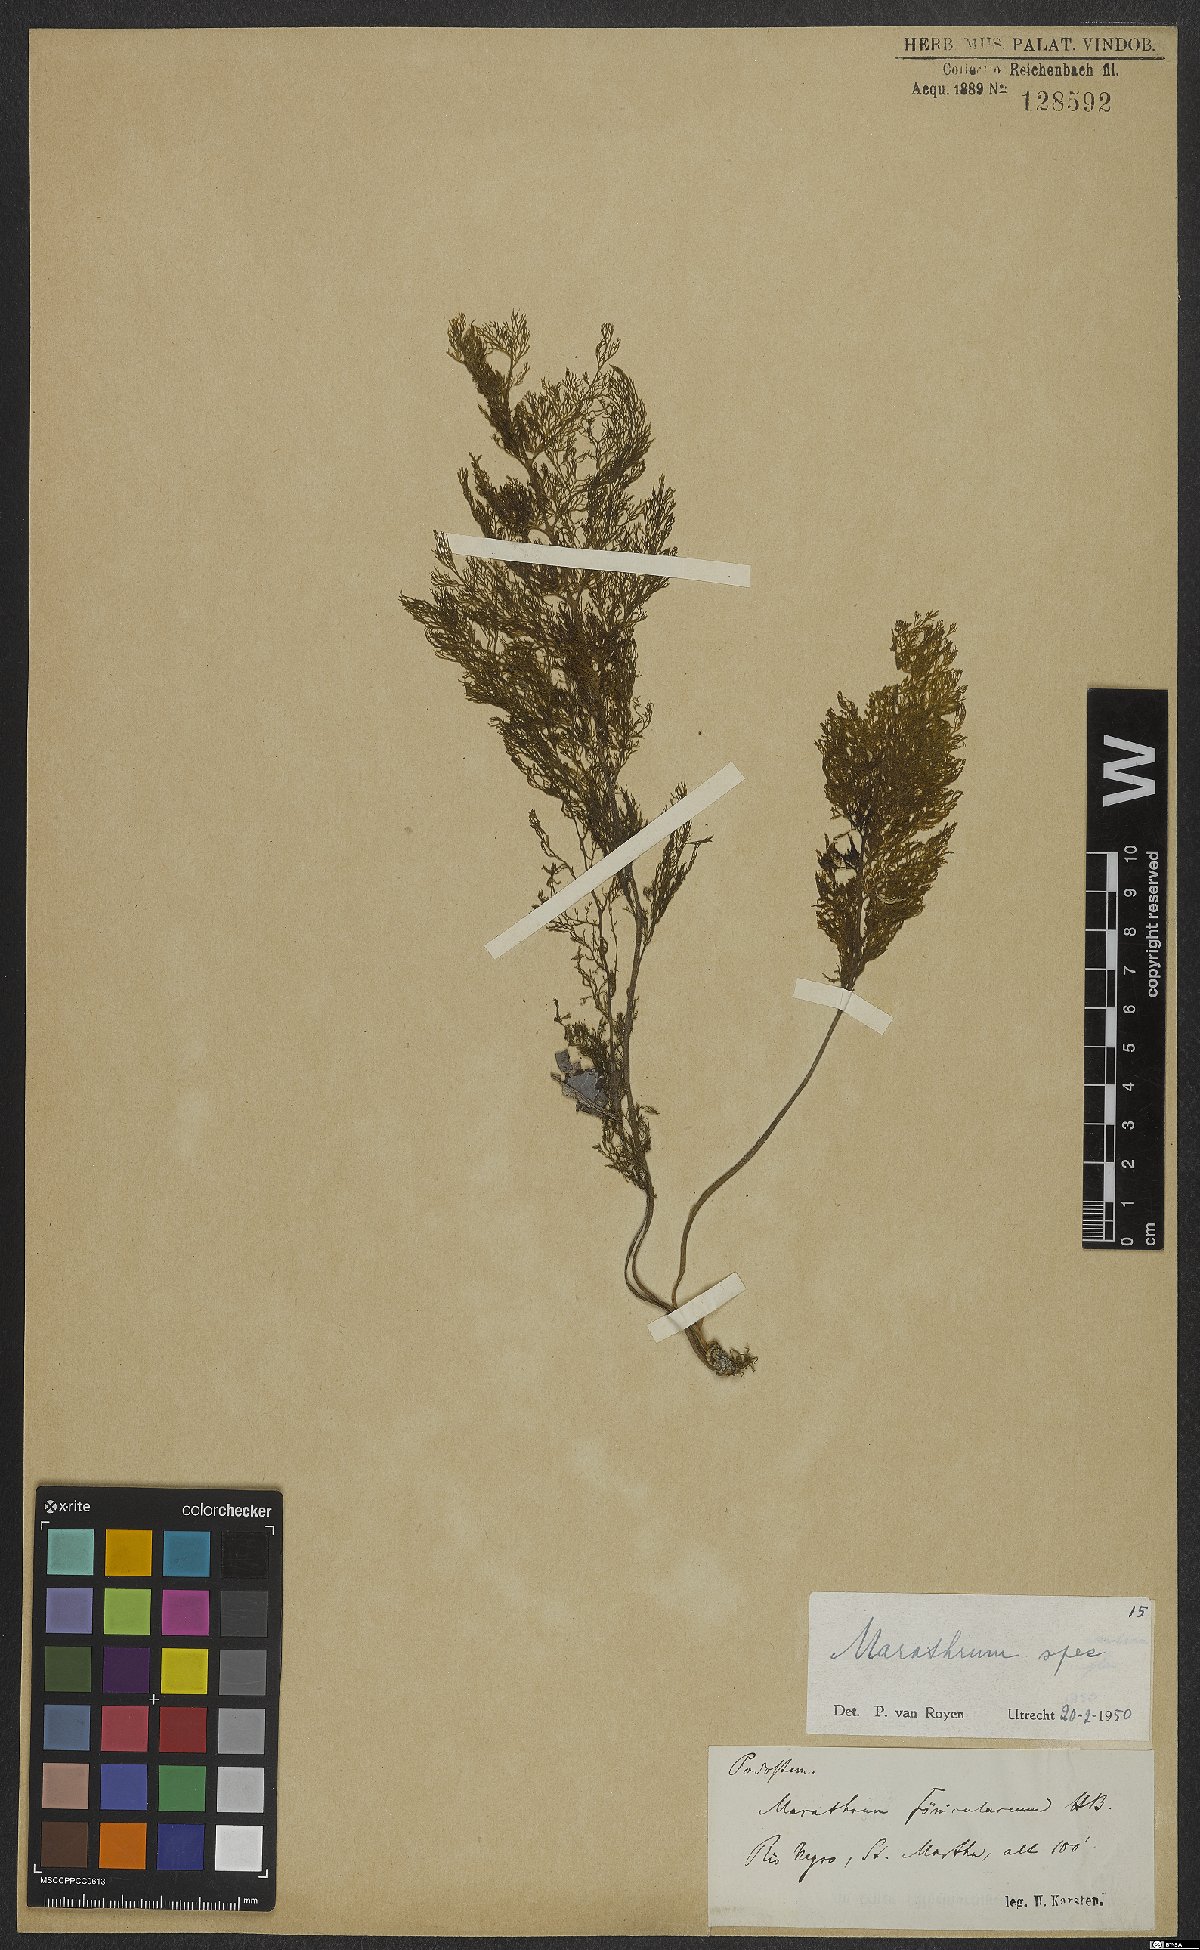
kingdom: Plantae
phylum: Tracheophyta
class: Magnoliopsida
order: Malpighiales
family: Podostemaceae
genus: Marathrum
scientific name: Marathrum
